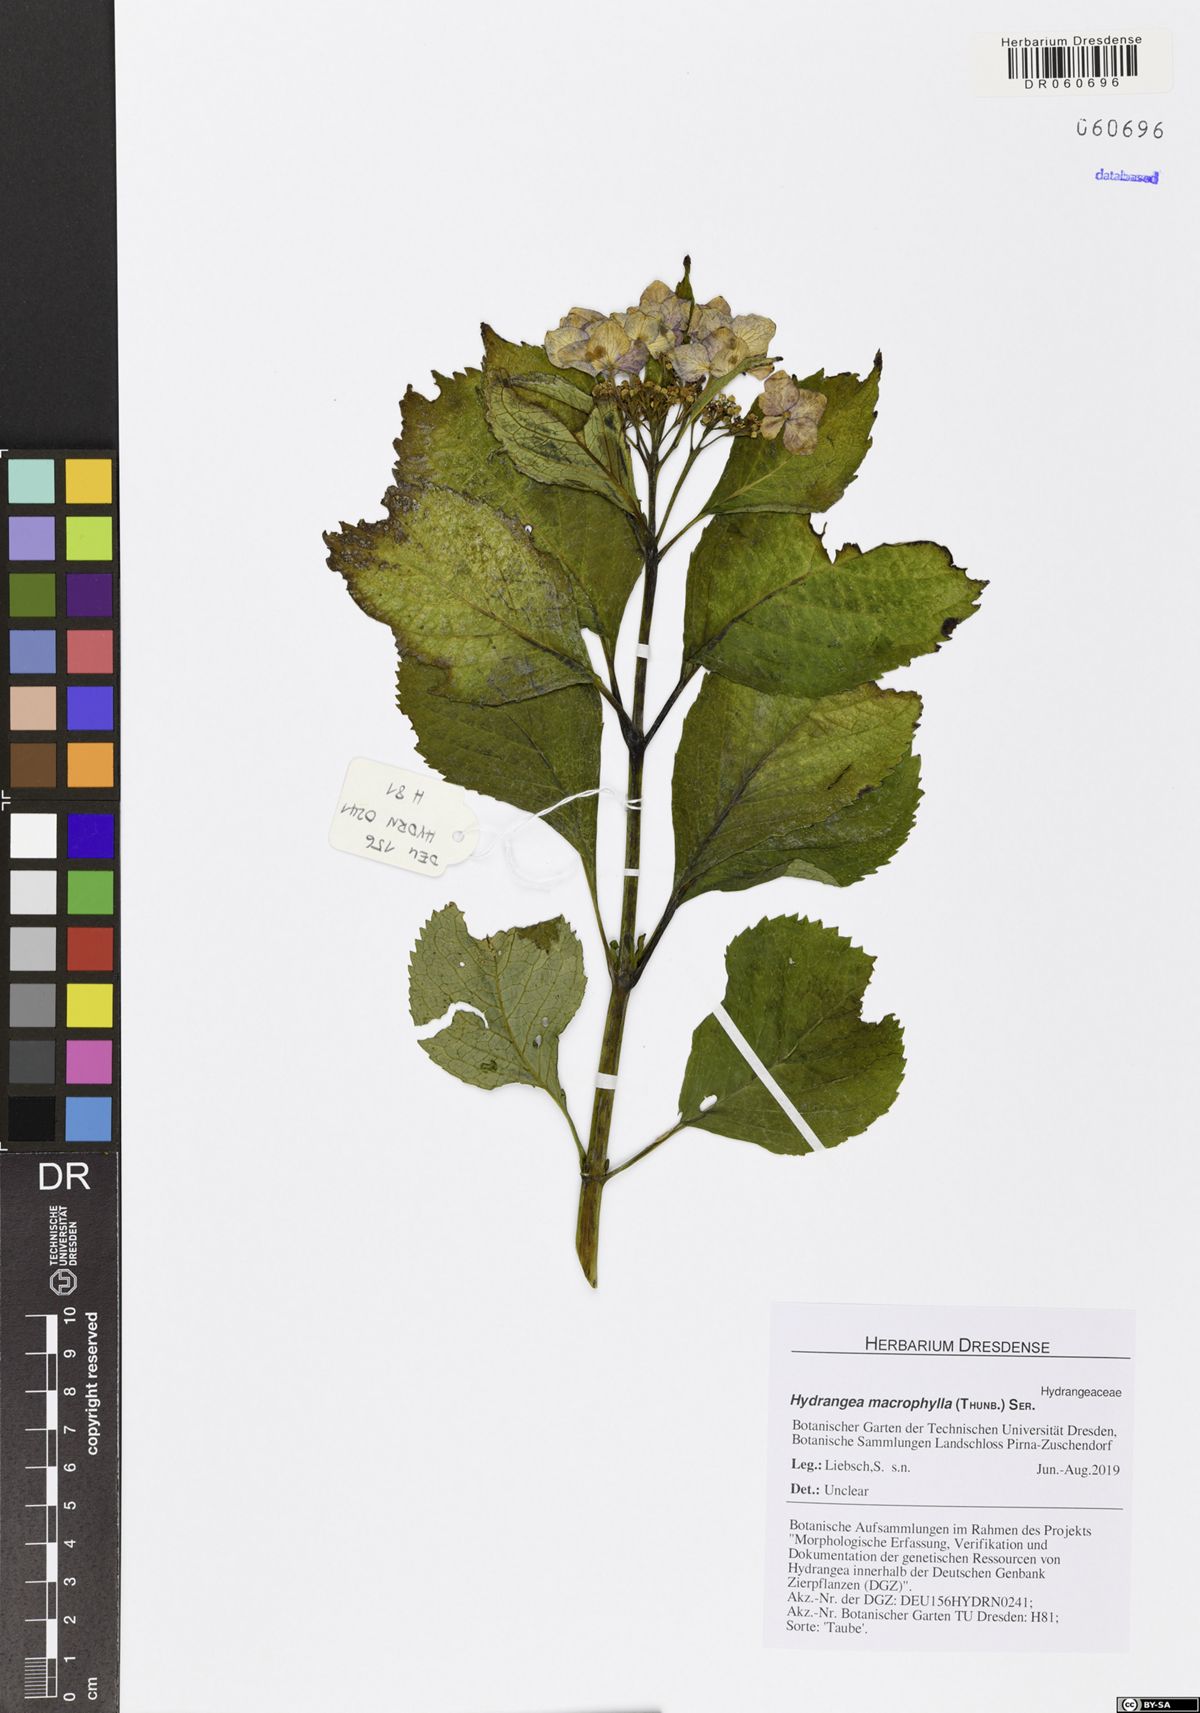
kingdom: Plantae
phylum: Tracheophyta
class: Magnoliopsida
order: Cornales
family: Hydrangeaceae
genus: Hydrangea
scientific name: Hydrangea macrophylla
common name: Hydrangea
